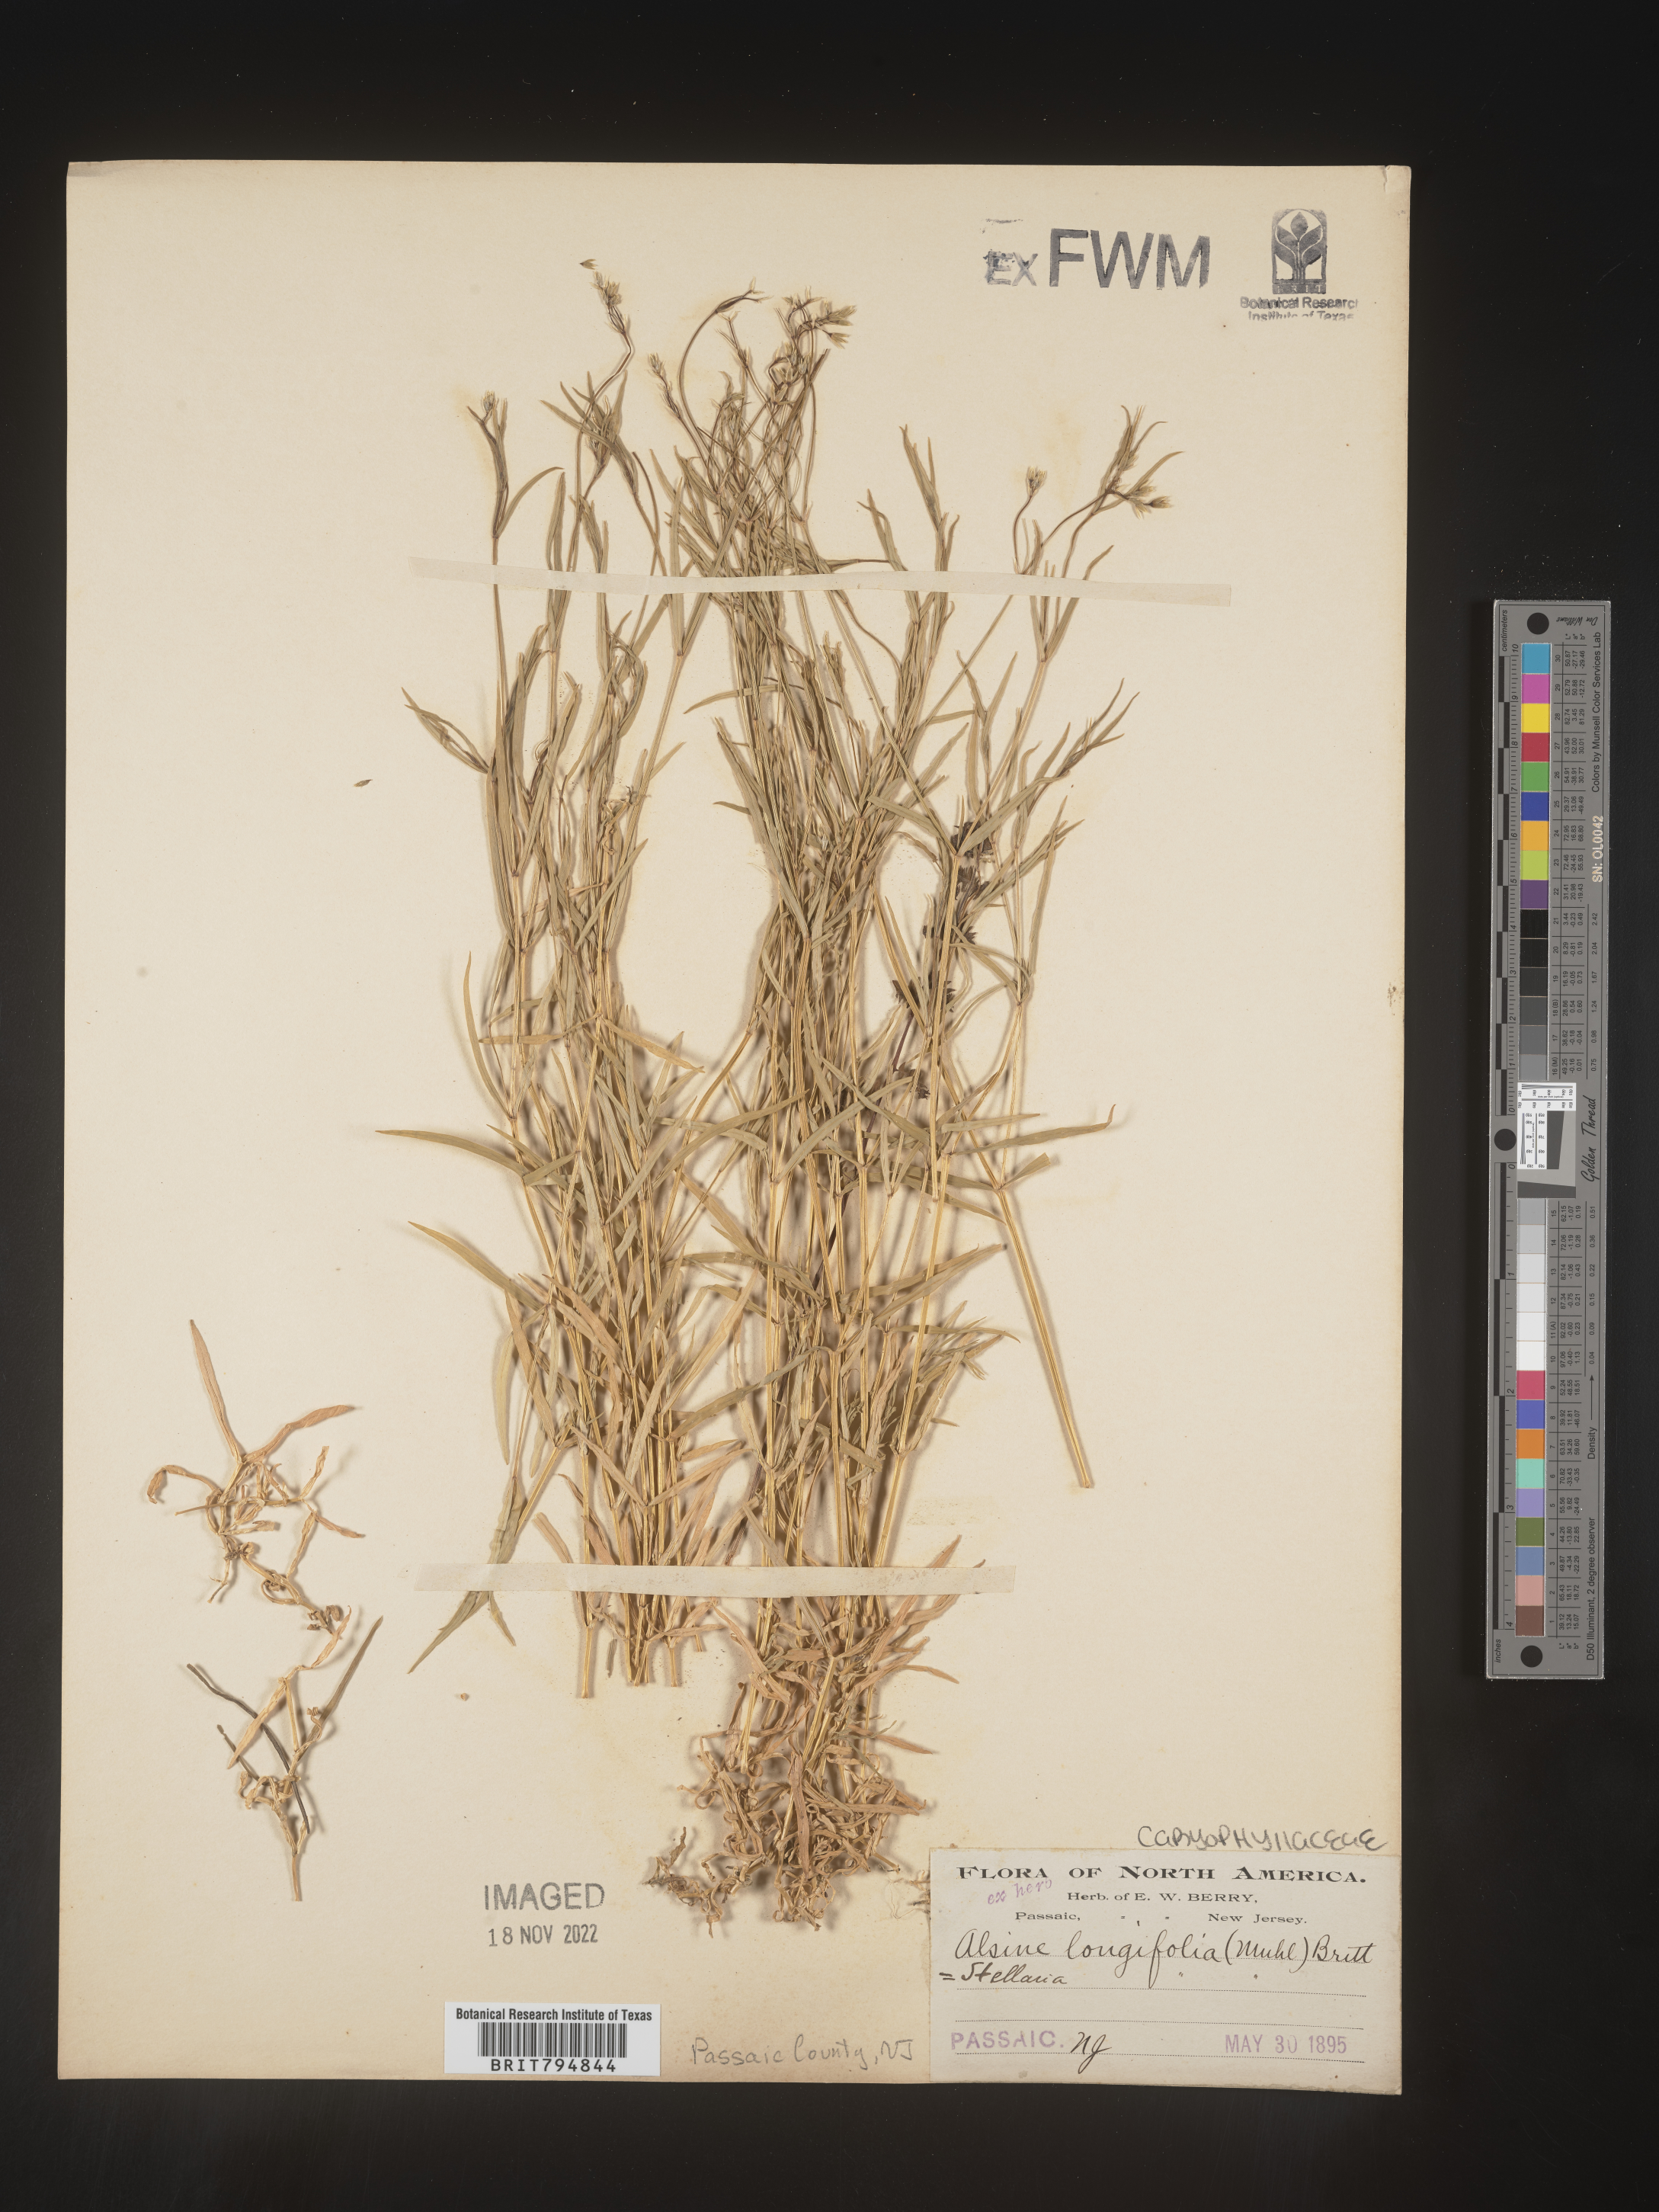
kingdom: Plantae
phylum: Tracheophyta
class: Magnoliopsida
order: Caryophyllales
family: Caryophyllaceae
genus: Stellaria
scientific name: Stellaria longifolia
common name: Long-leaved chickweed
